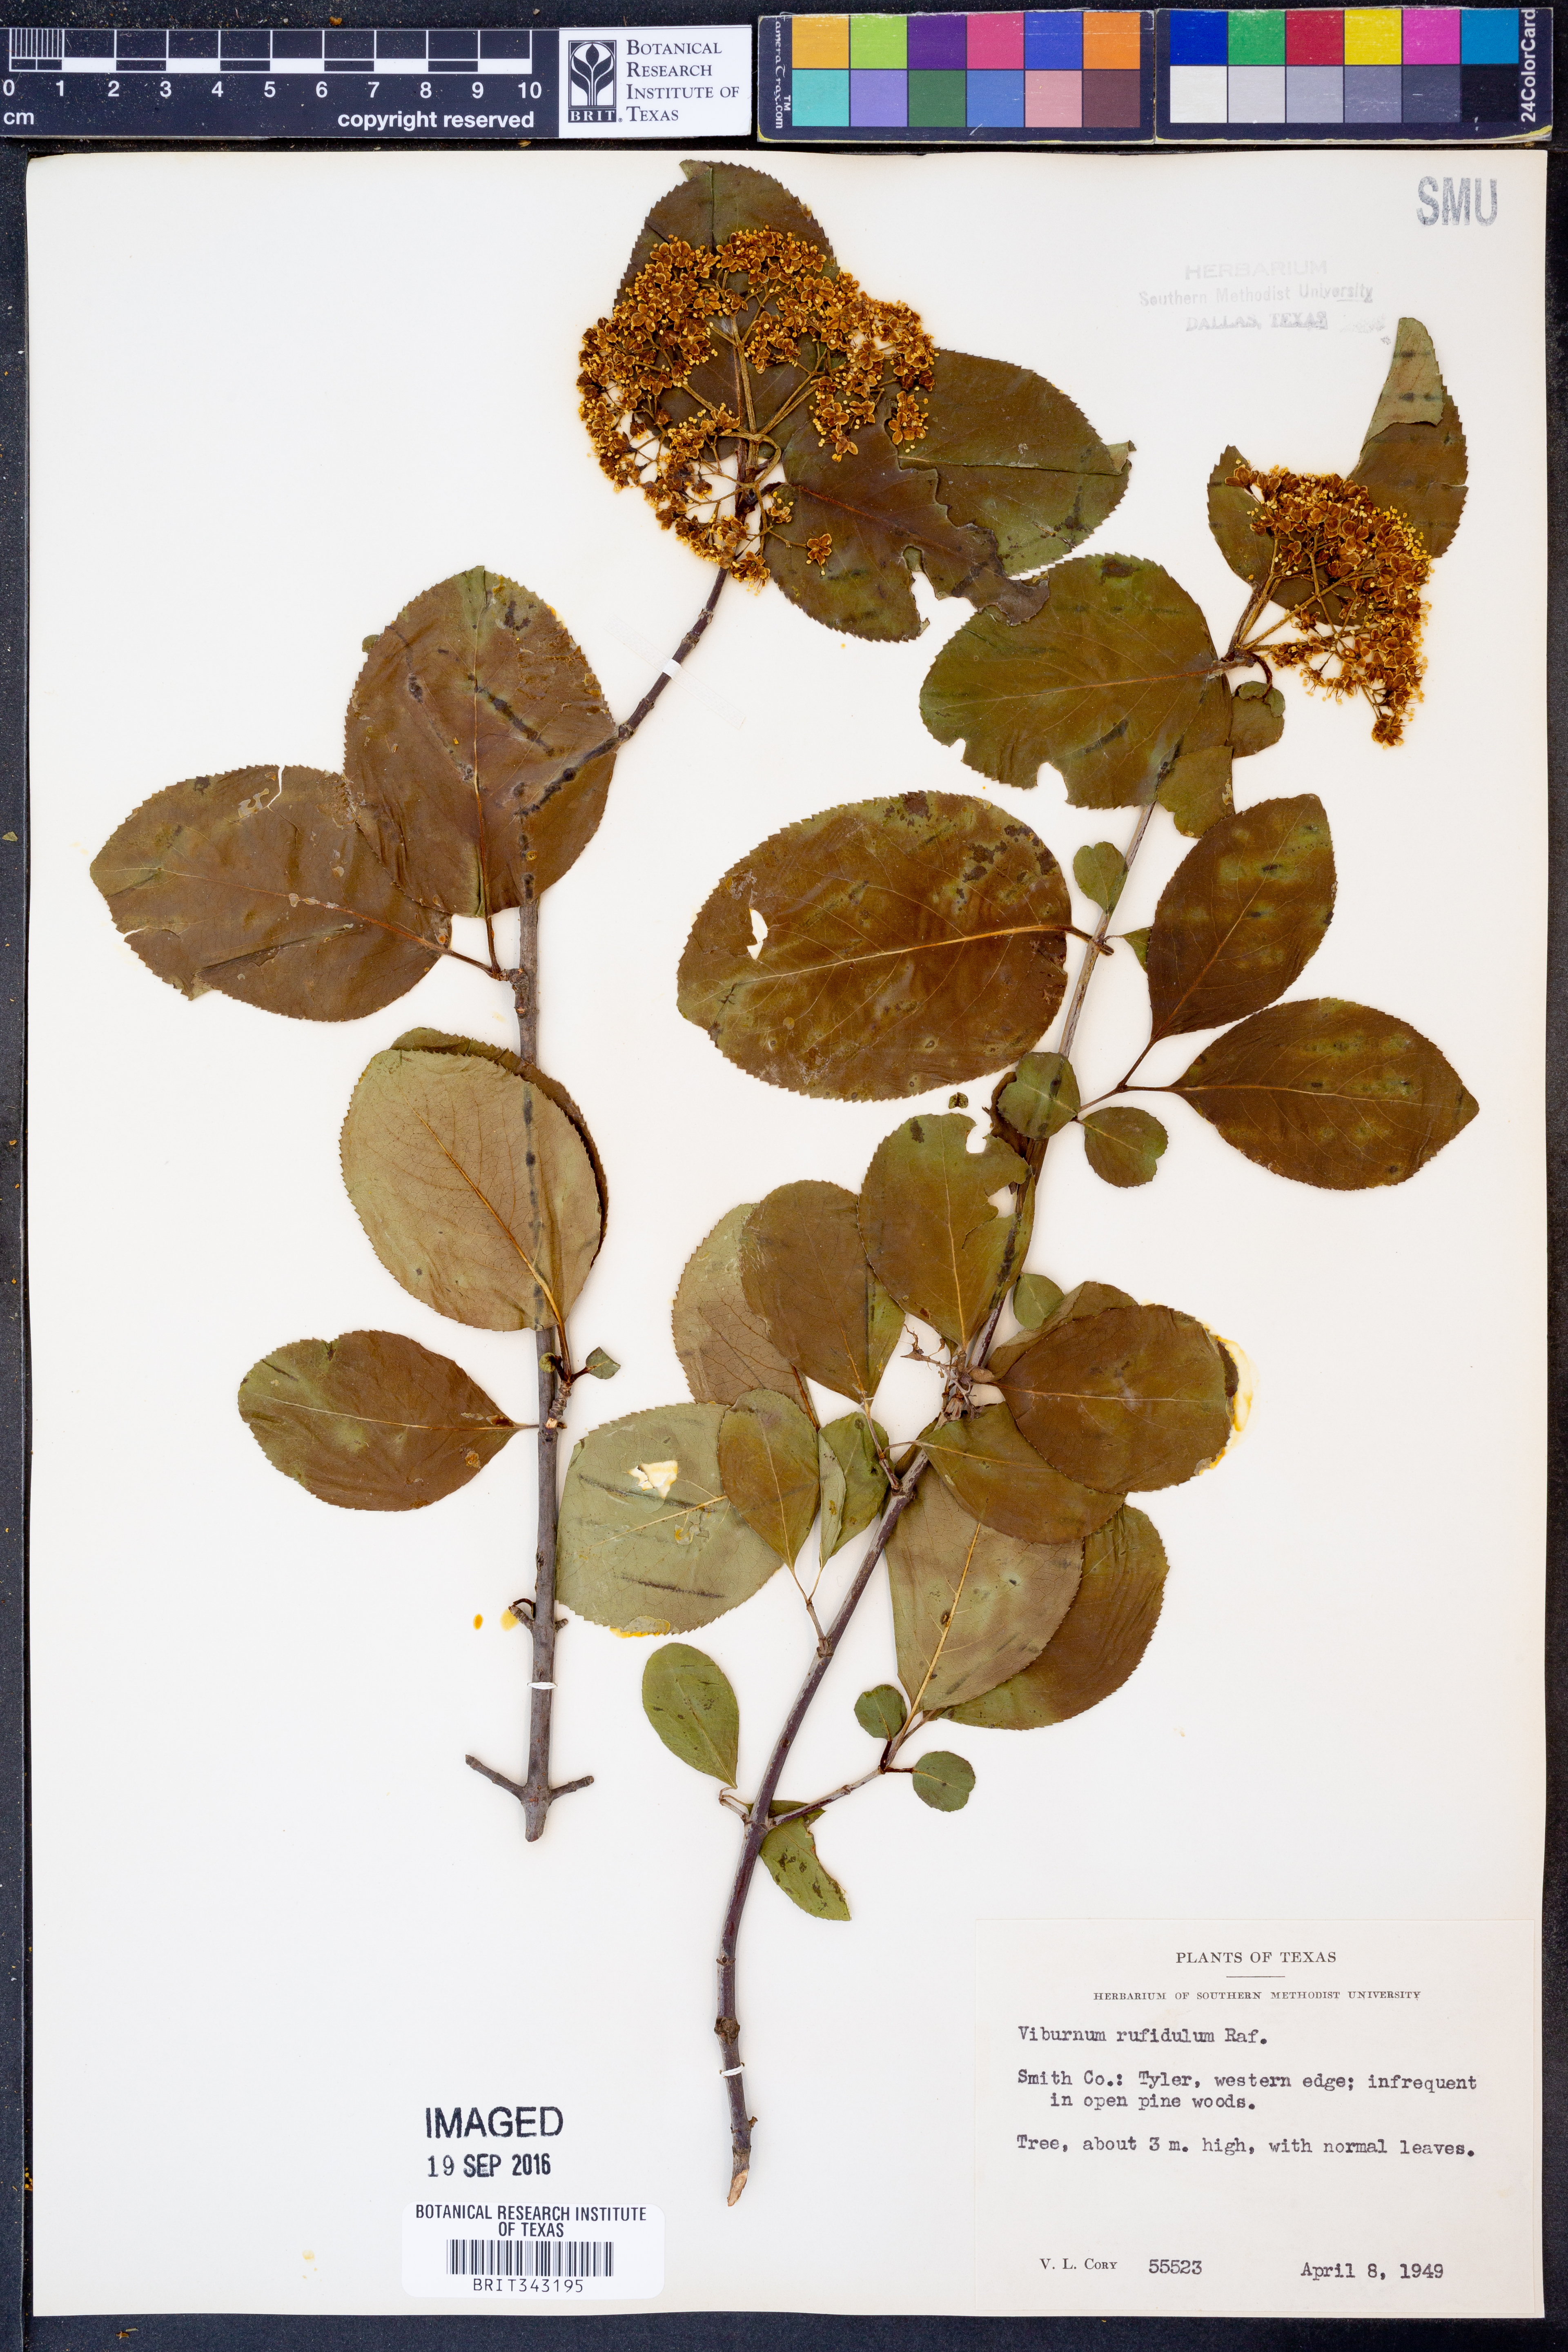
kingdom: Plantae
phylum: Tracheophyta
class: Magnoliopsida
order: Dipsacales
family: Viburnaceae
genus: Viburnum
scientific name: Viburnum rufidulum
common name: Blue haw
